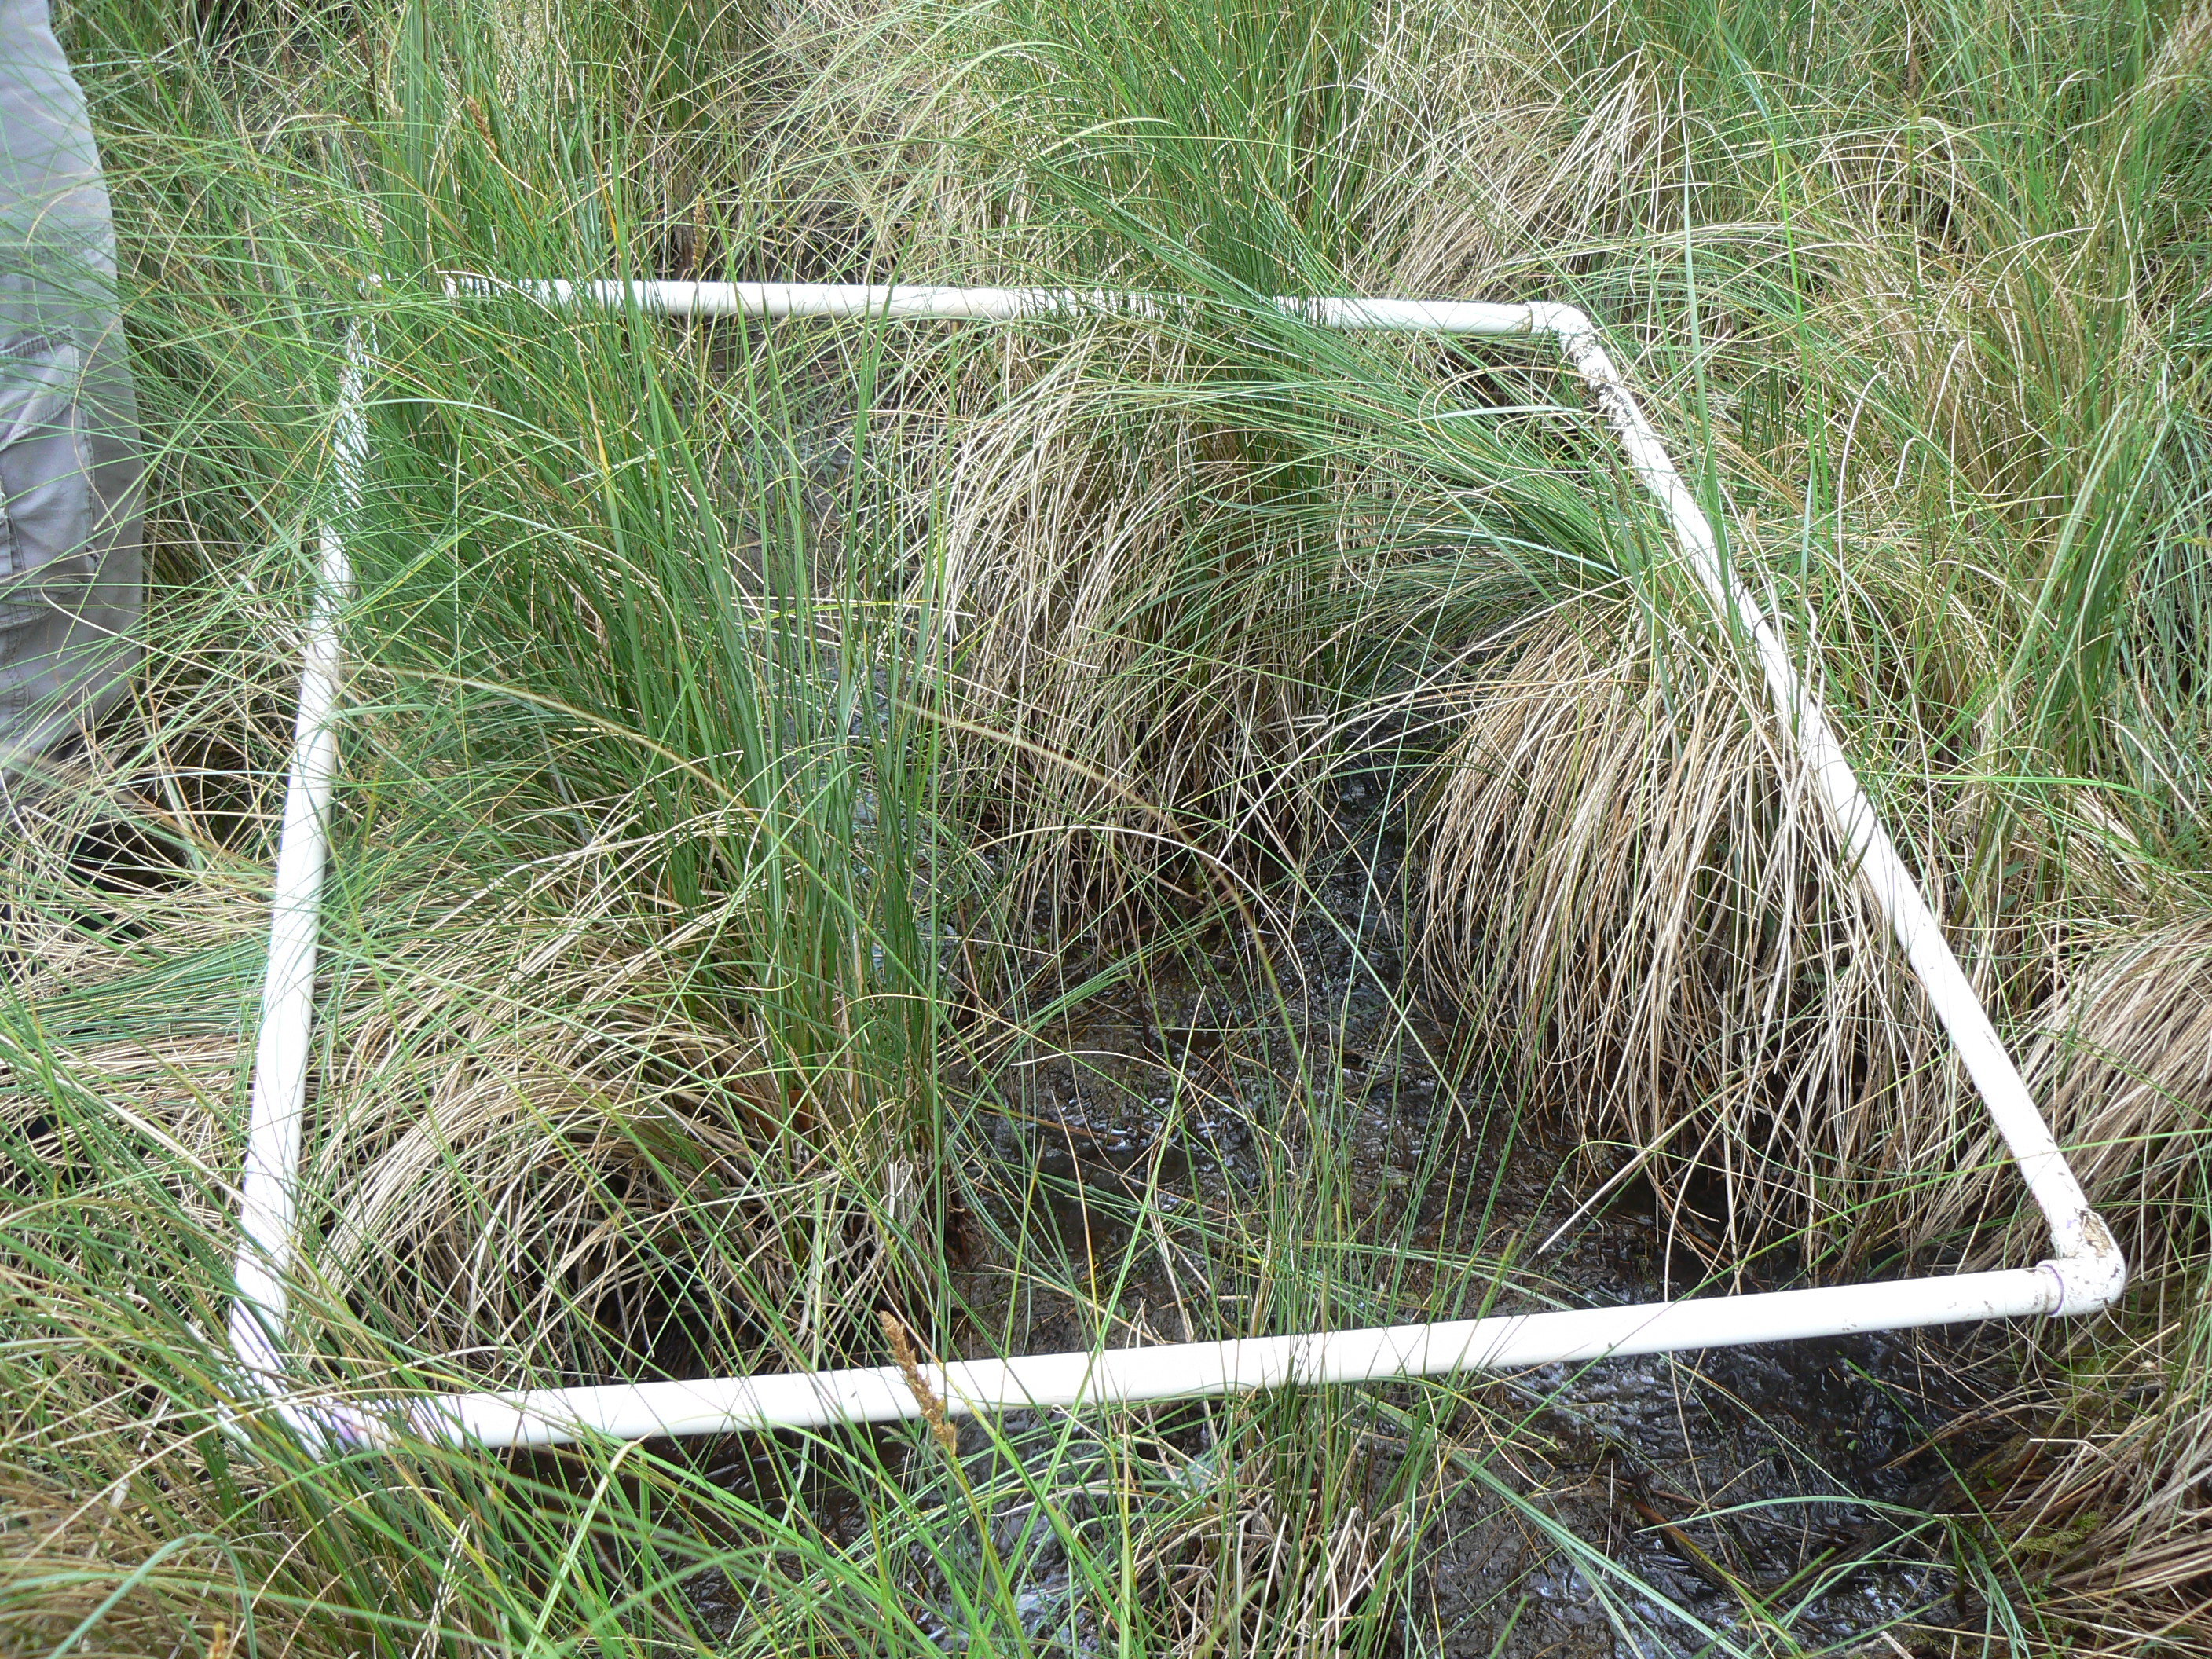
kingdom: Plantae
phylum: Tracheophyta
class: Liliopsida
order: Poales
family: Cyperaceae
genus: Cladium
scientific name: Cladium mariscoides
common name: Smooth sawgrass
